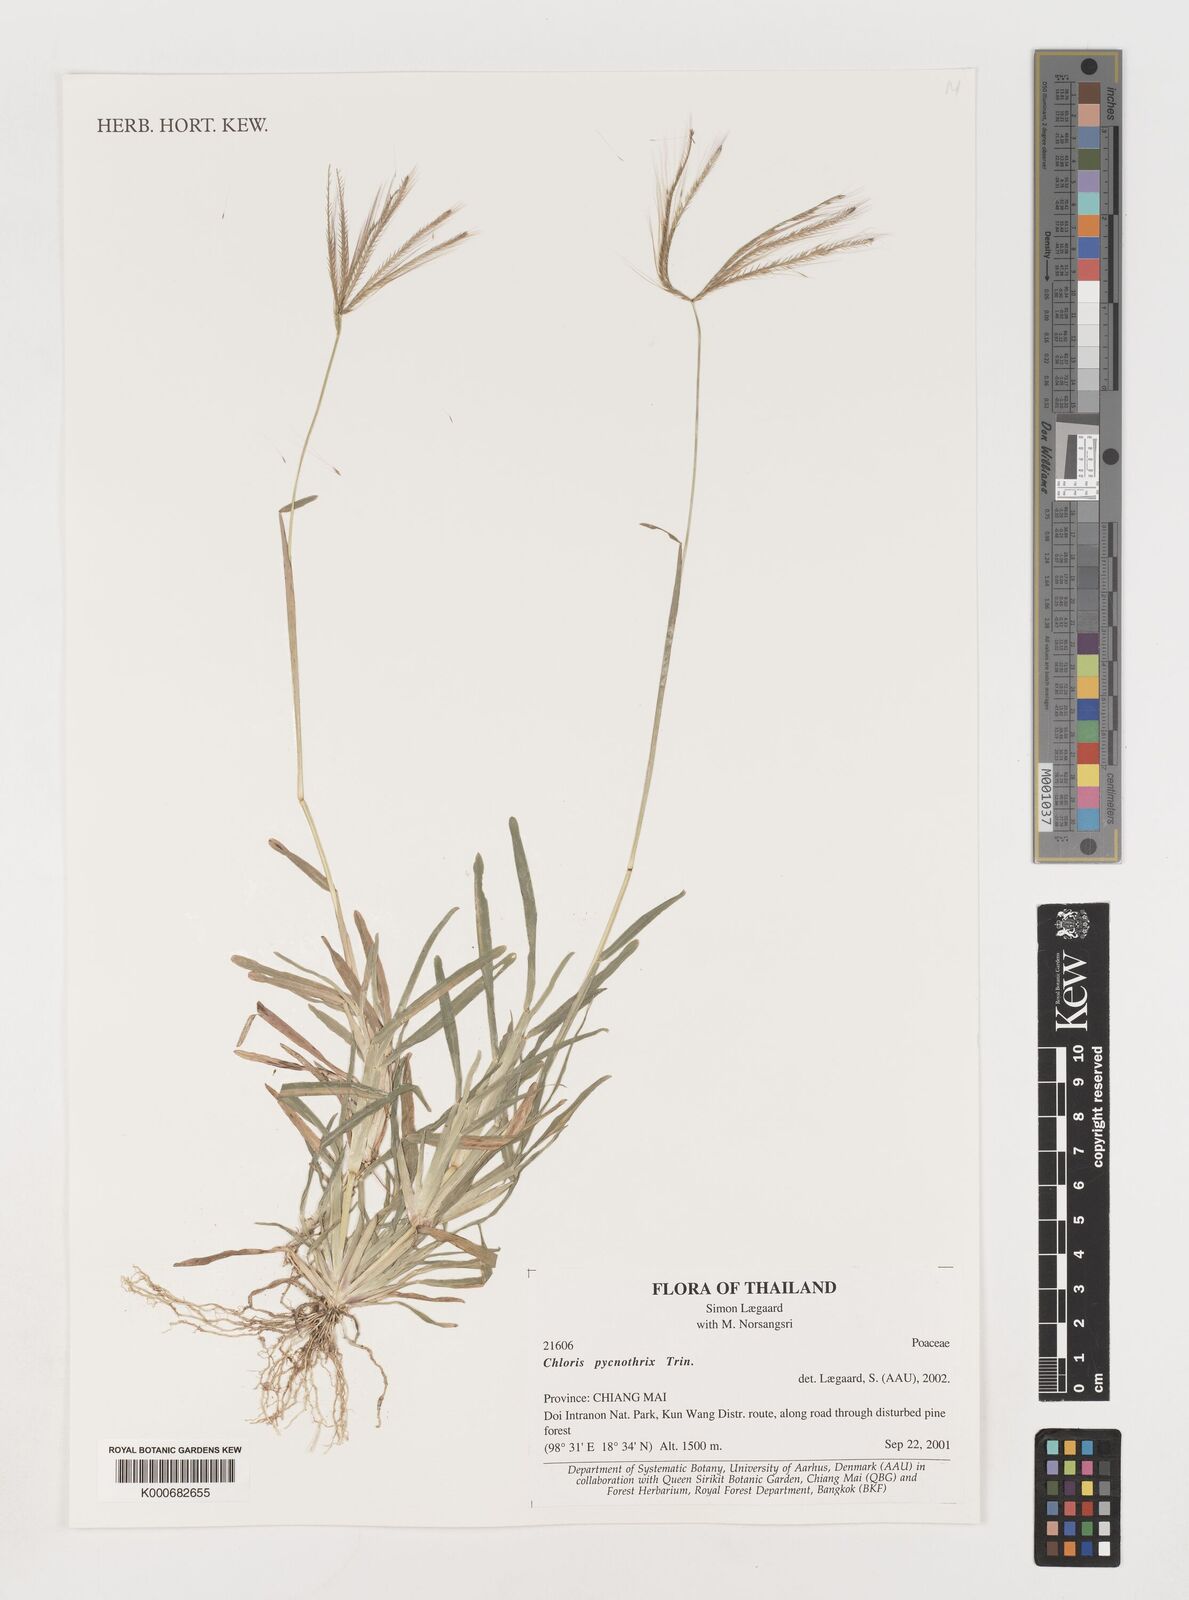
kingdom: Plantae
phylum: Tracheophyta
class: Liliopsida
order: Poales
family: Poaceae
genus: Chloris
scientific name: Chloris pycnothrix
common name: Spiderweb chloris
